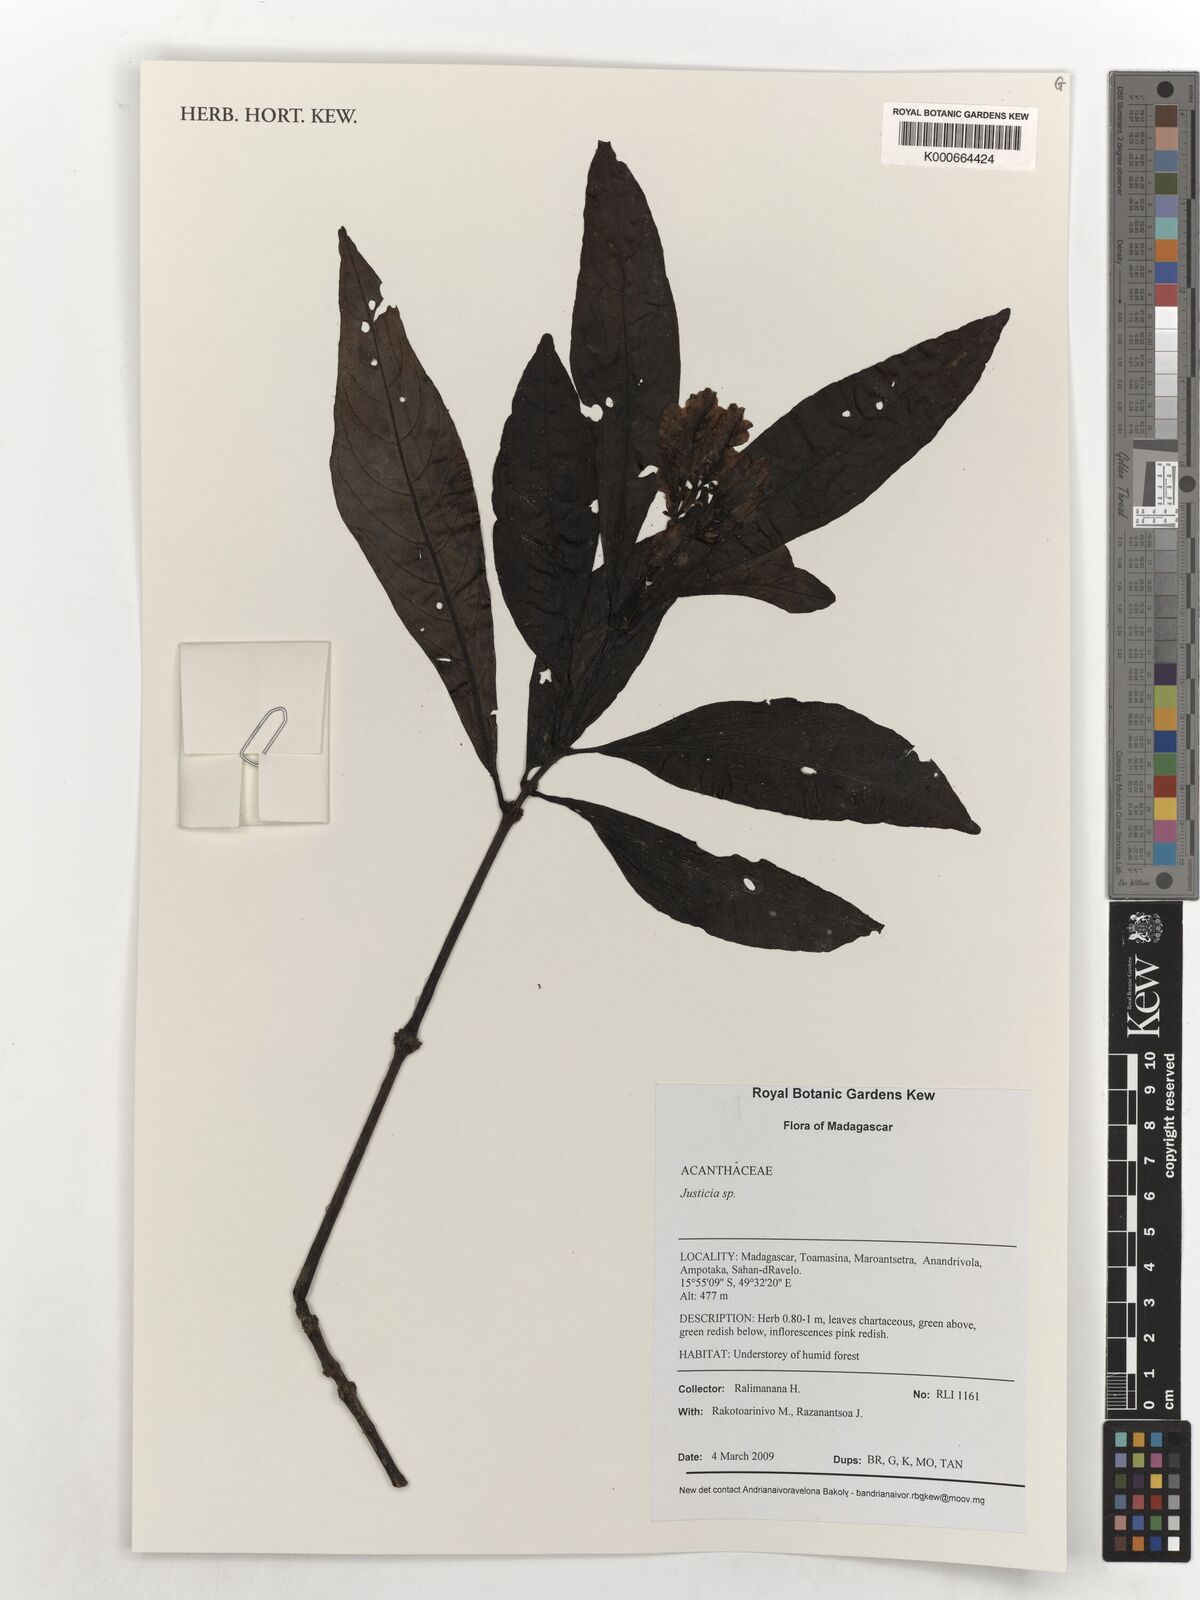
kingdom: Plantae
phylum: Tracheophyta
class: Magnoliopsida
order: Lamiales
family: Acanthaceae
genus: Justicia
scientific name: Justicia
